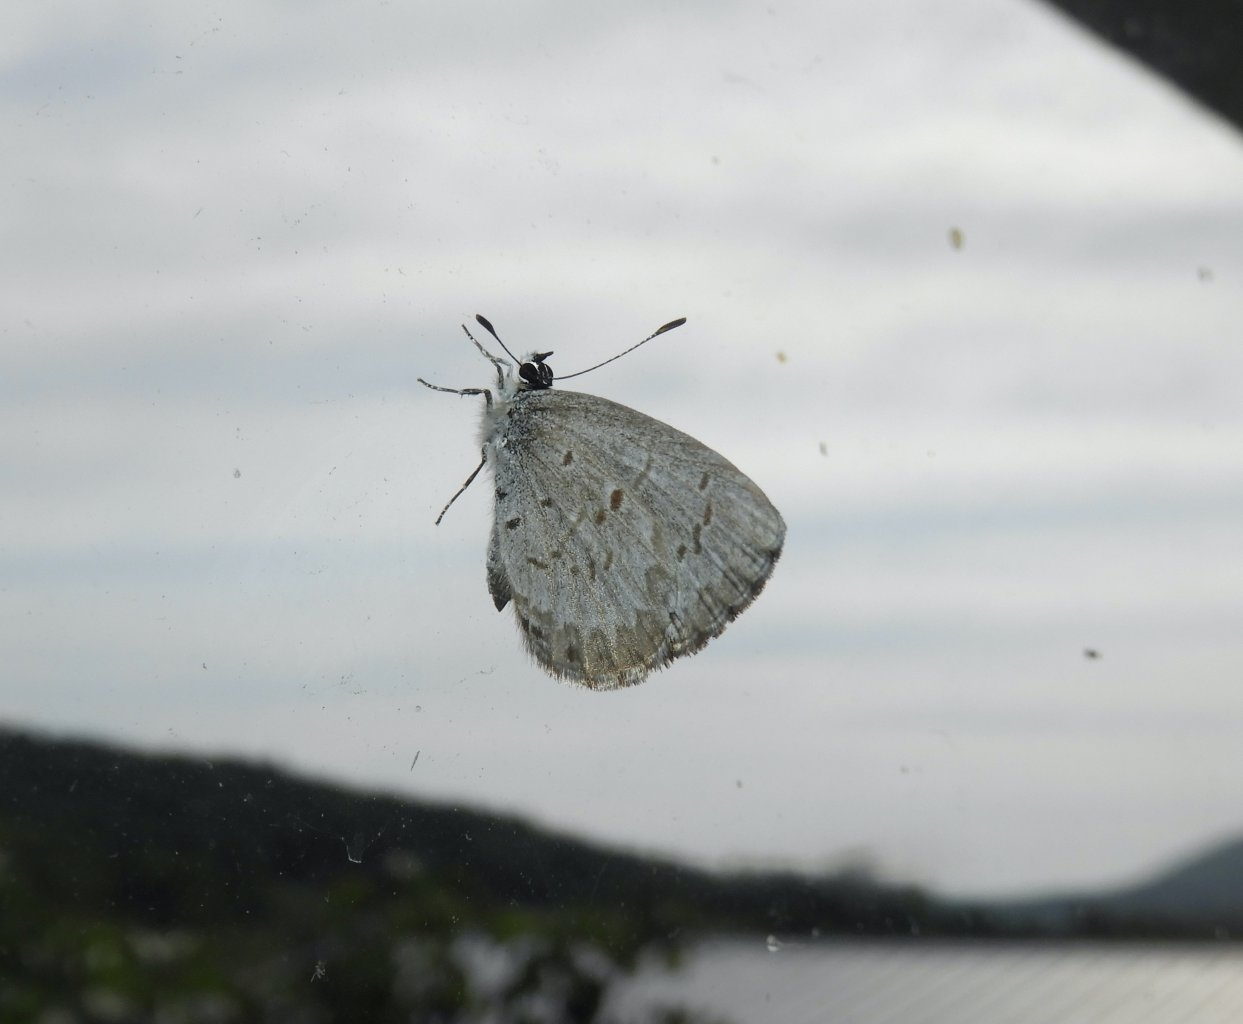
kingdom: Animalia
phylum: Arthropoda
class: Insecta
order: Lepidoptera
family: Lycaenidae
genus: Celastrina
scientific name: Celastrina lucia
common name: Northern Spring Azure
